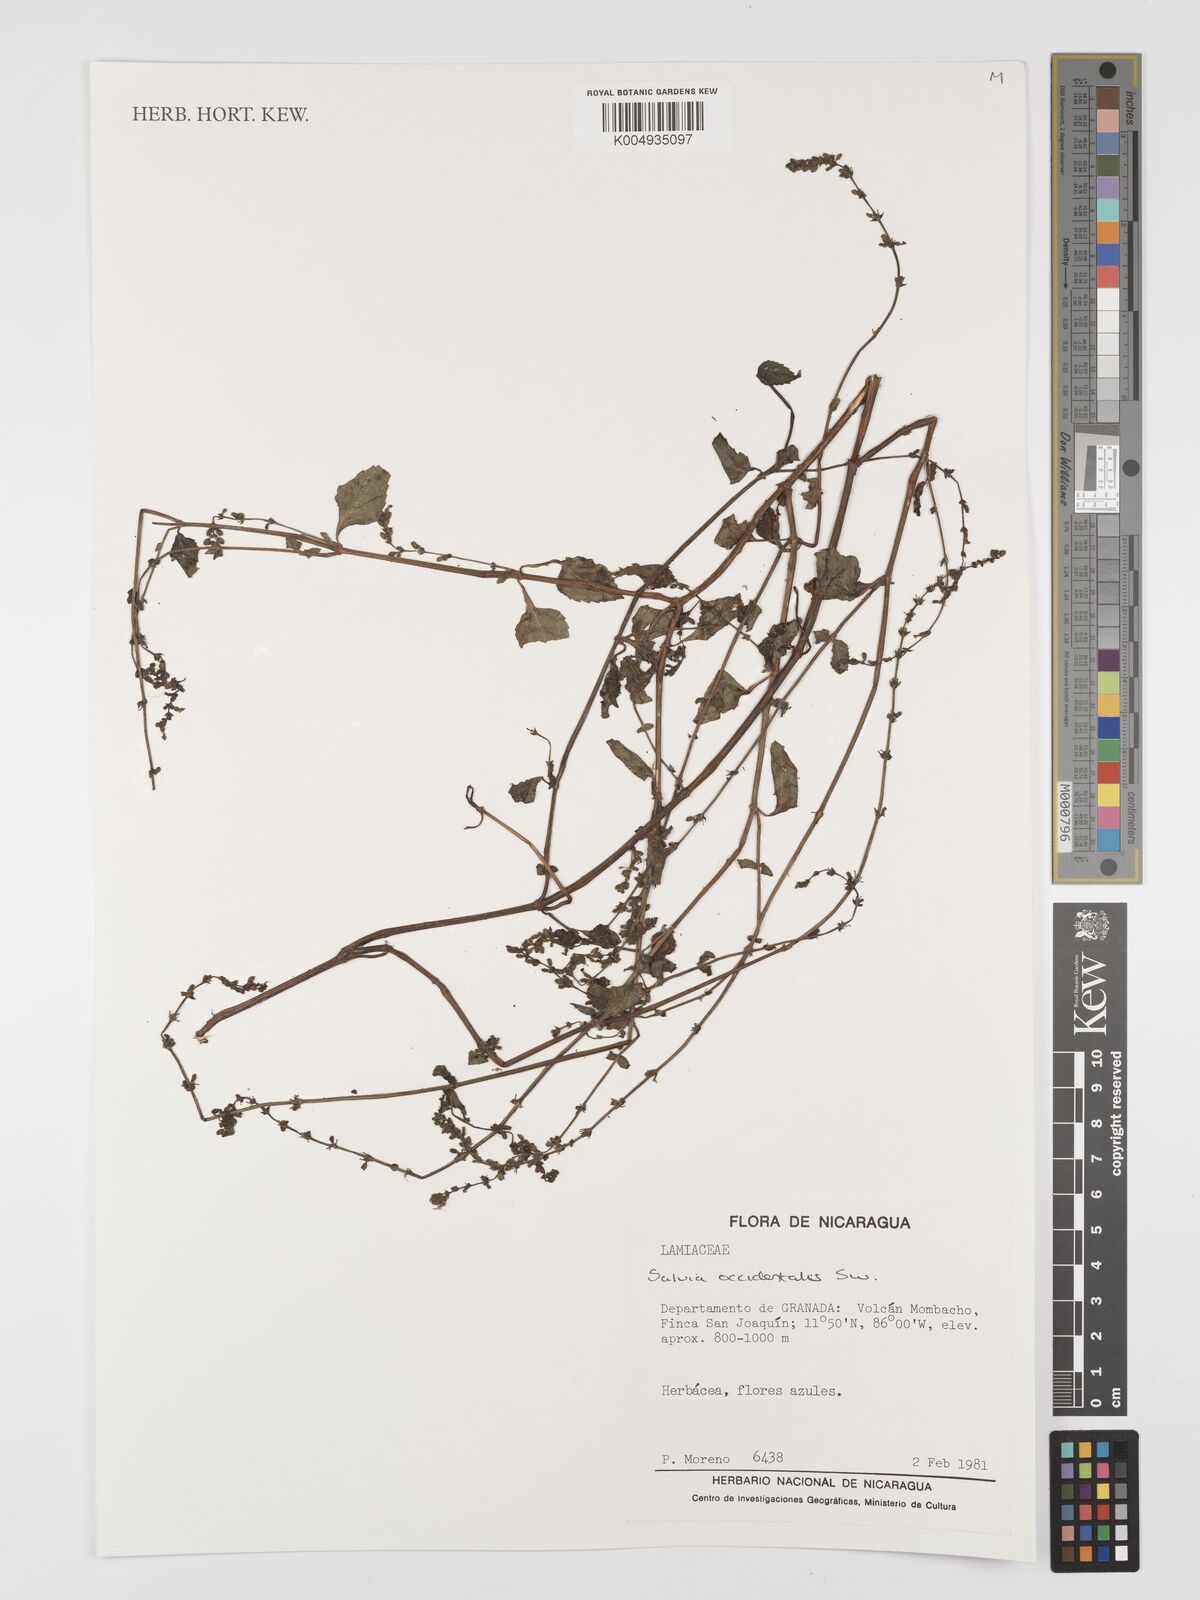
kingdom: Plantae
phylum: Tracheophyta
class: Magnoliopsida
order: Lamiales
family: Lamiaceae
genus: Salvia
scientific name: Salvia occidentalis
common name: West indian sage
